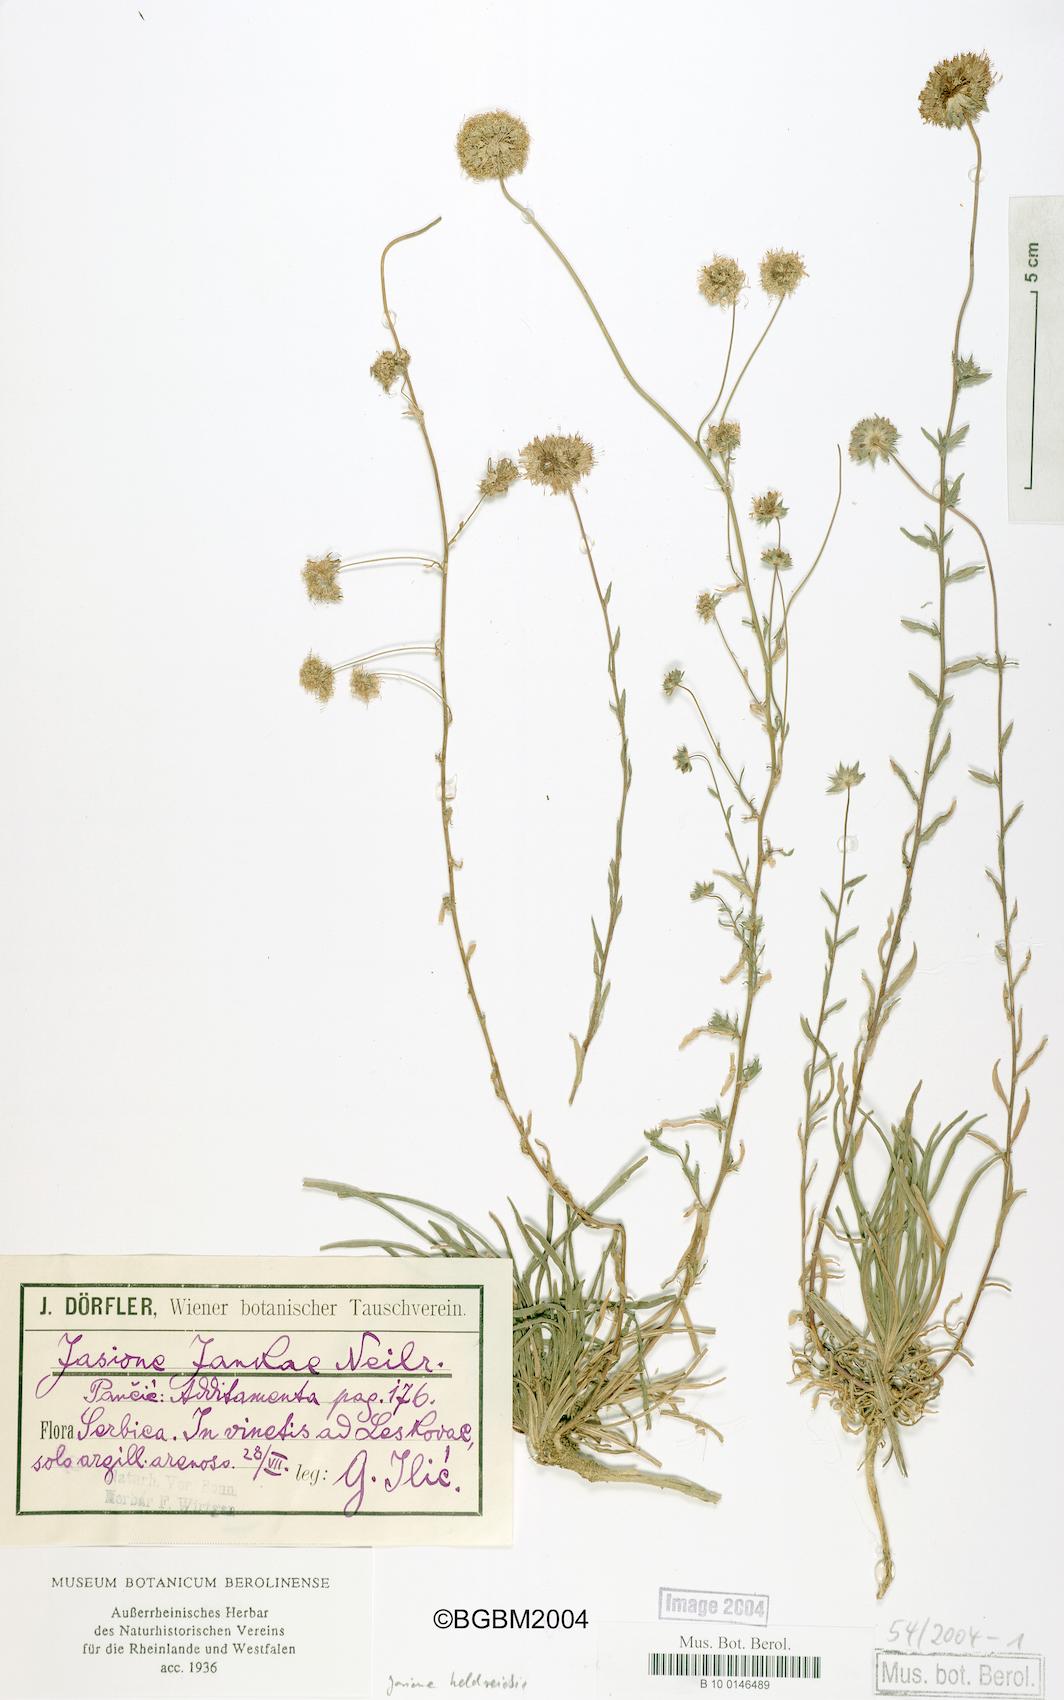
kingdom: Plantae
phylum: Tracheophyta
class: Magnoliopsida
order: Asterales
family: Campanulaceae
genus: Jasione
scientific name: Jasione heldreichii
